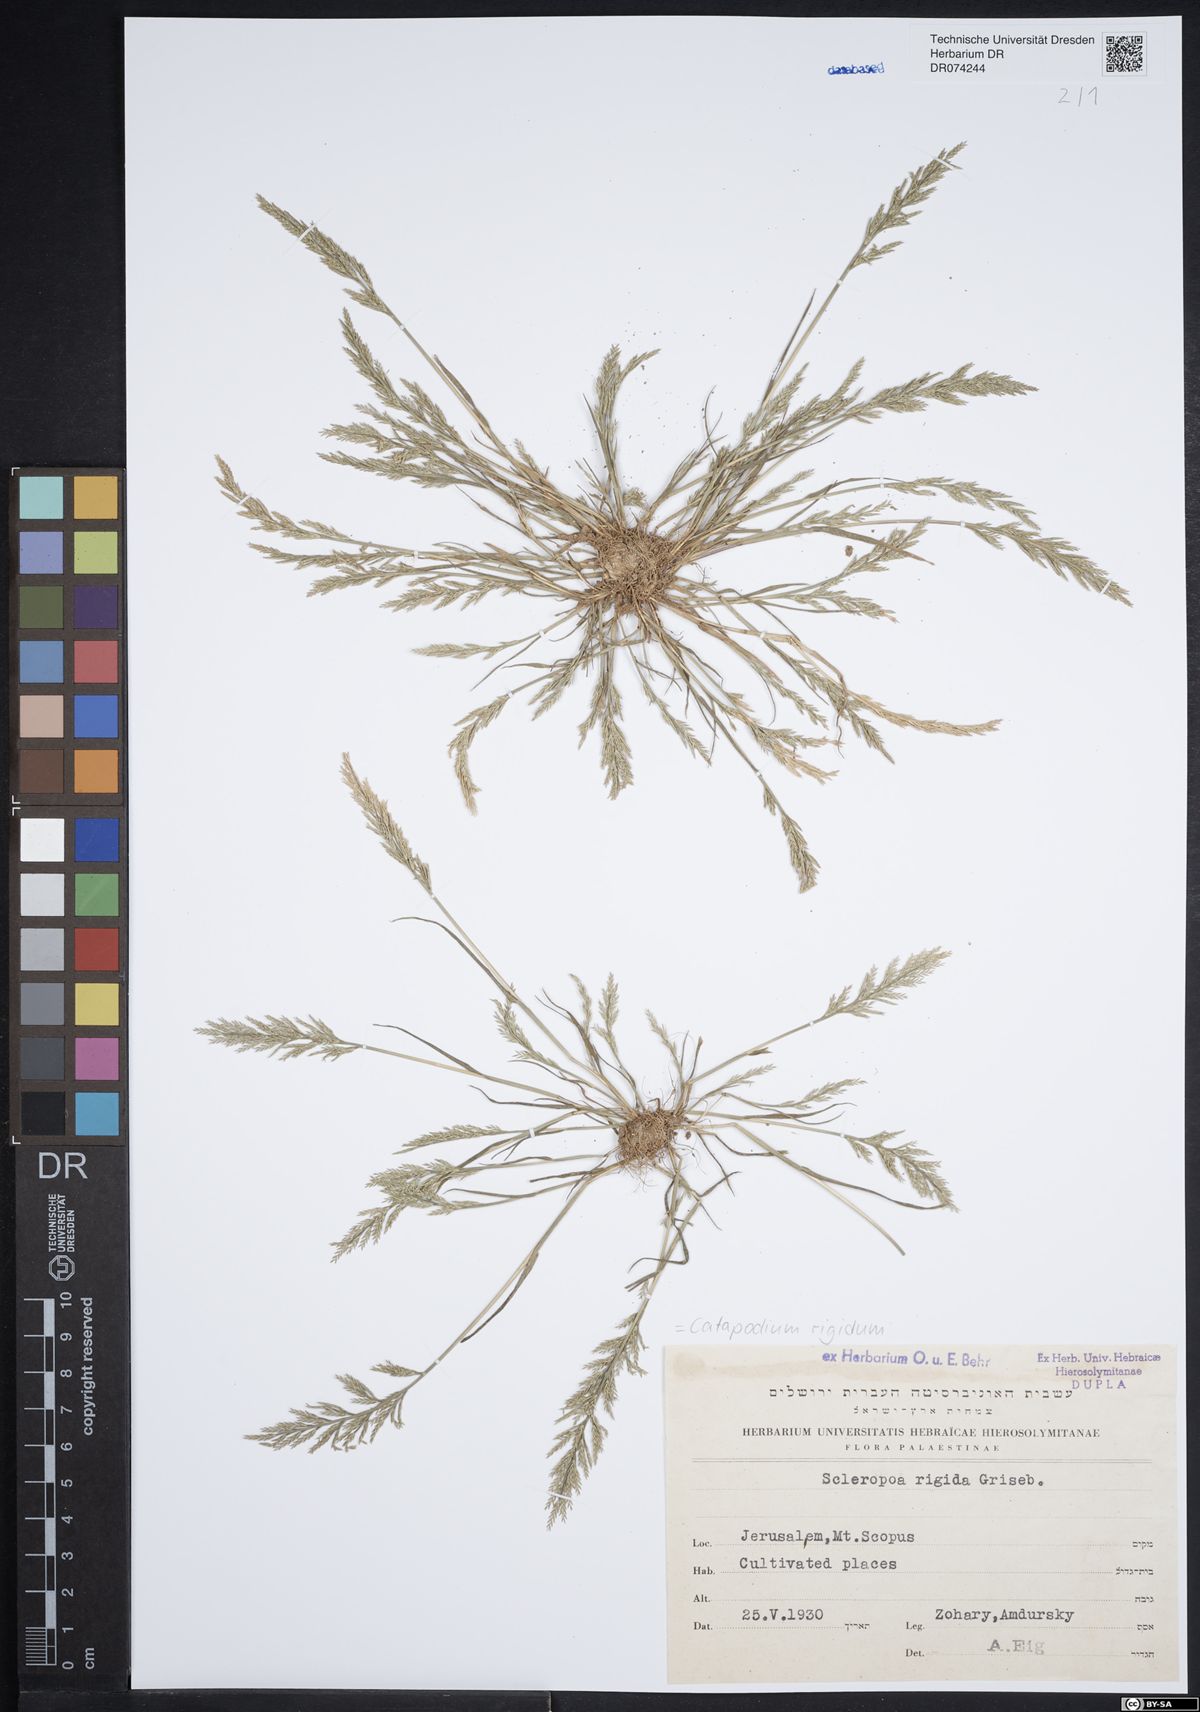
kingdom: Plantae
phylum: Tracheophyta
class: Liliopsida
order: Poales
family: Poaceae
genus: Catapodium
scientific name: Catapodium rigidum
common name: Fern-grass
